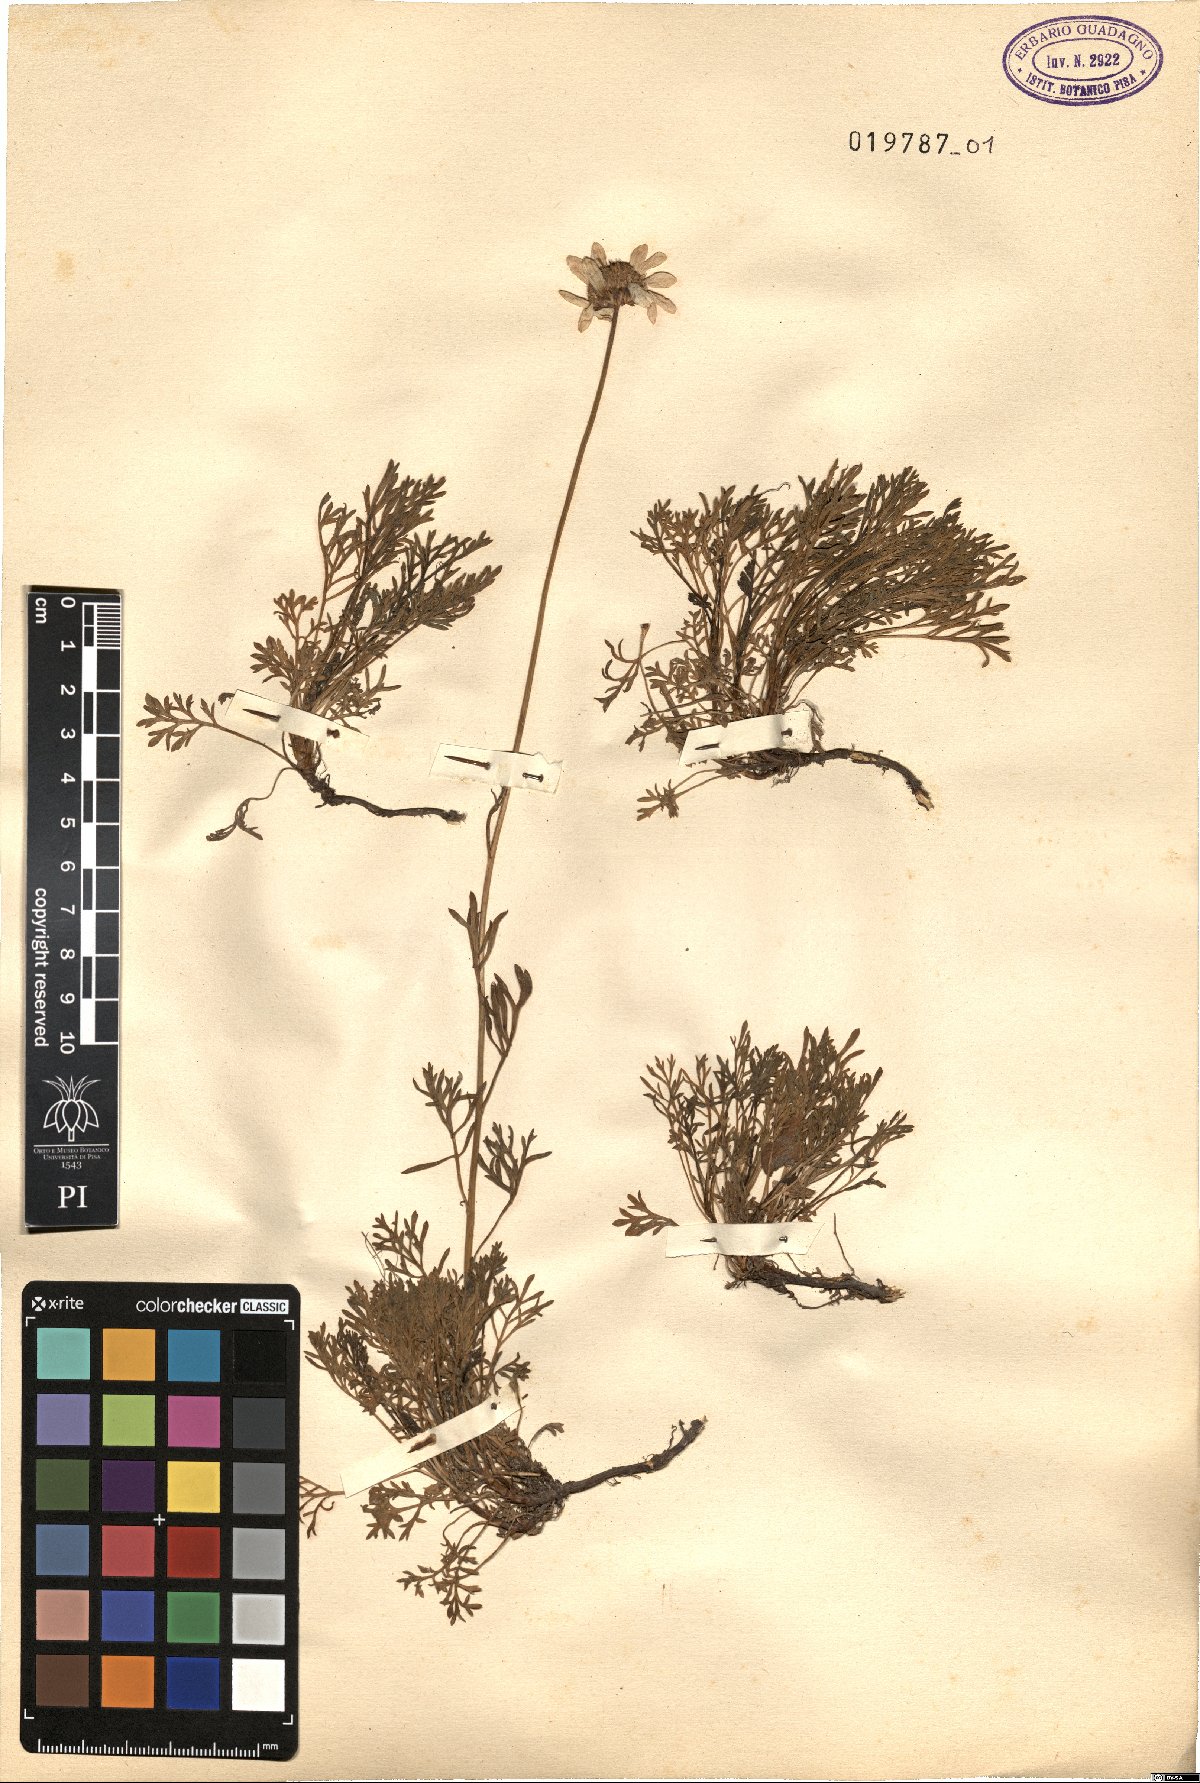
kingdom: Plantae
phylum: Tracheophyta
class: Magnoliopsida
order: Asterales
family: Asteraceae
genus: Anthemis
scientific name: Anthemis cretica
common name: Mountain dog-daisy
